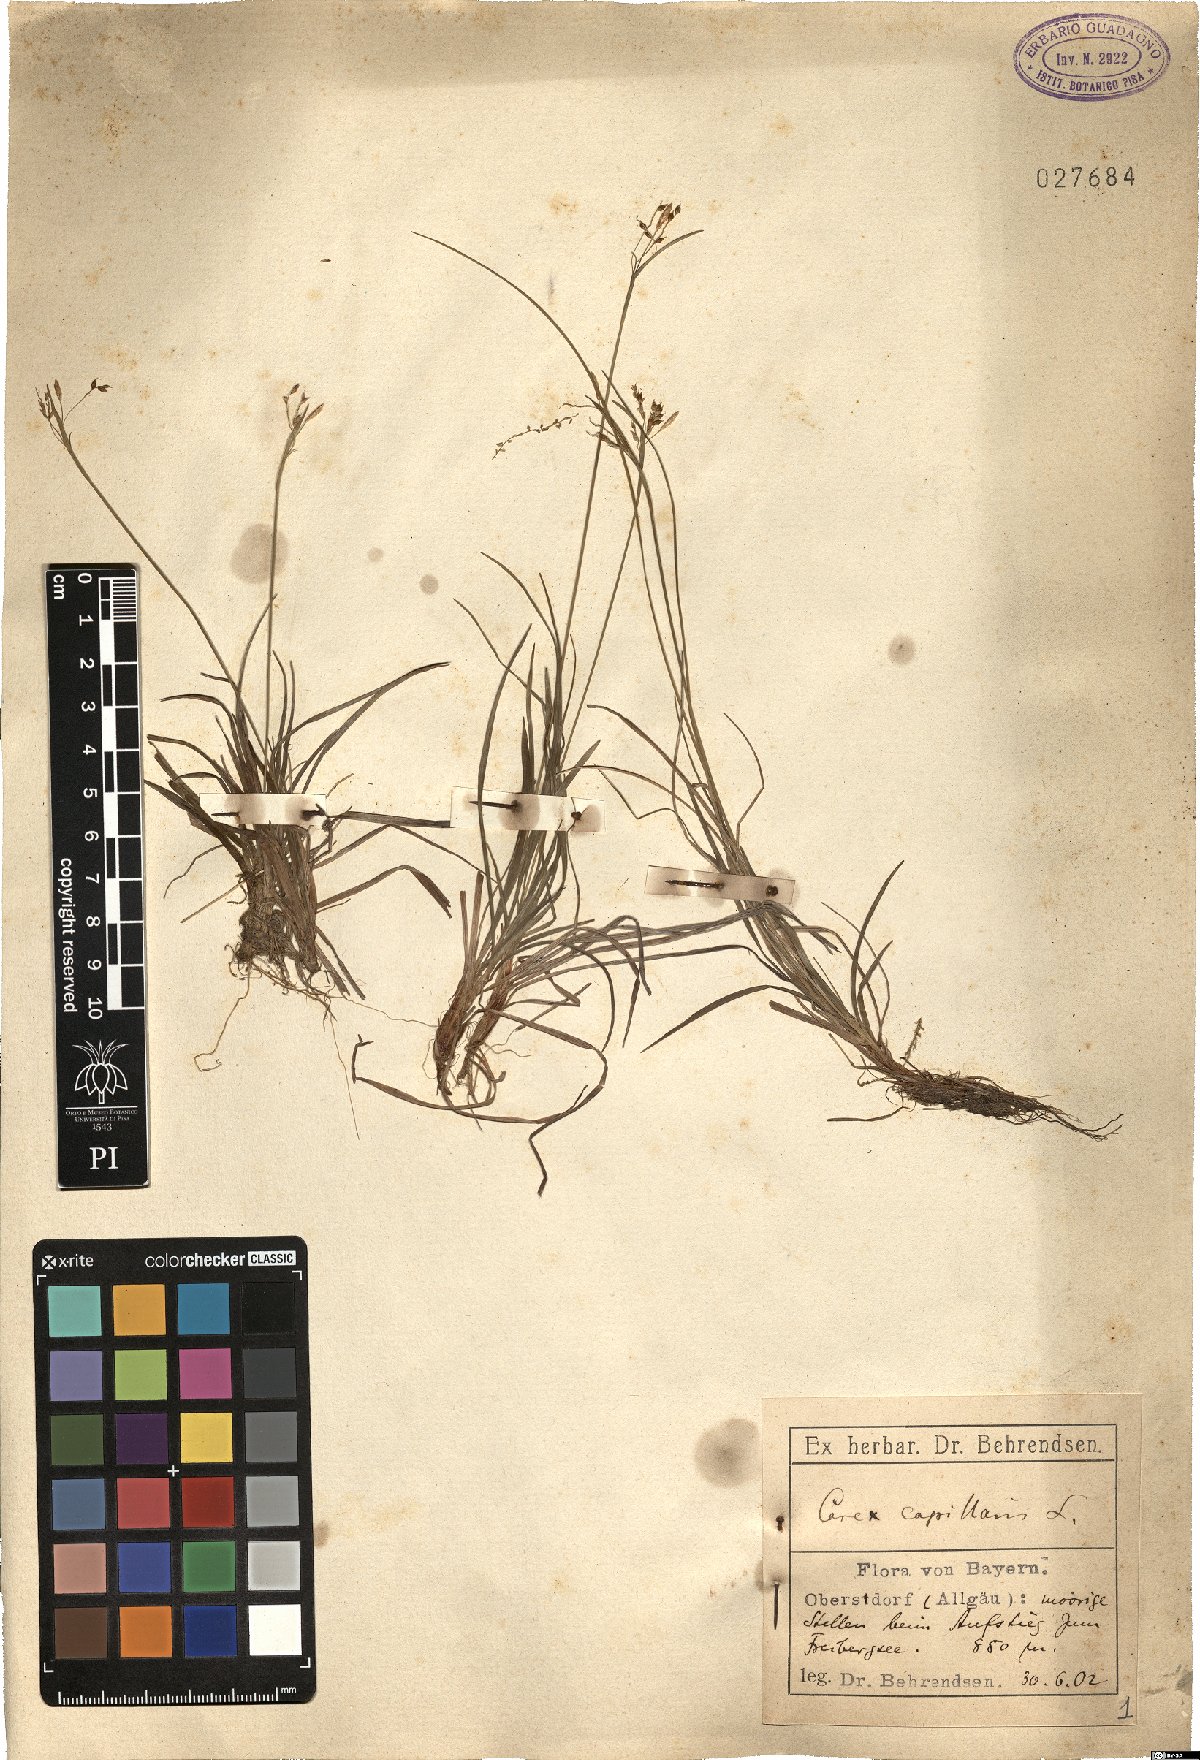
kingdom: Plantae
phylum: Tracheophyta
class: Liliopsida
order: Poales
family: Cyperaceae
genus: Carex
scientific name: Carex capillaris
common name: Hair sedge
